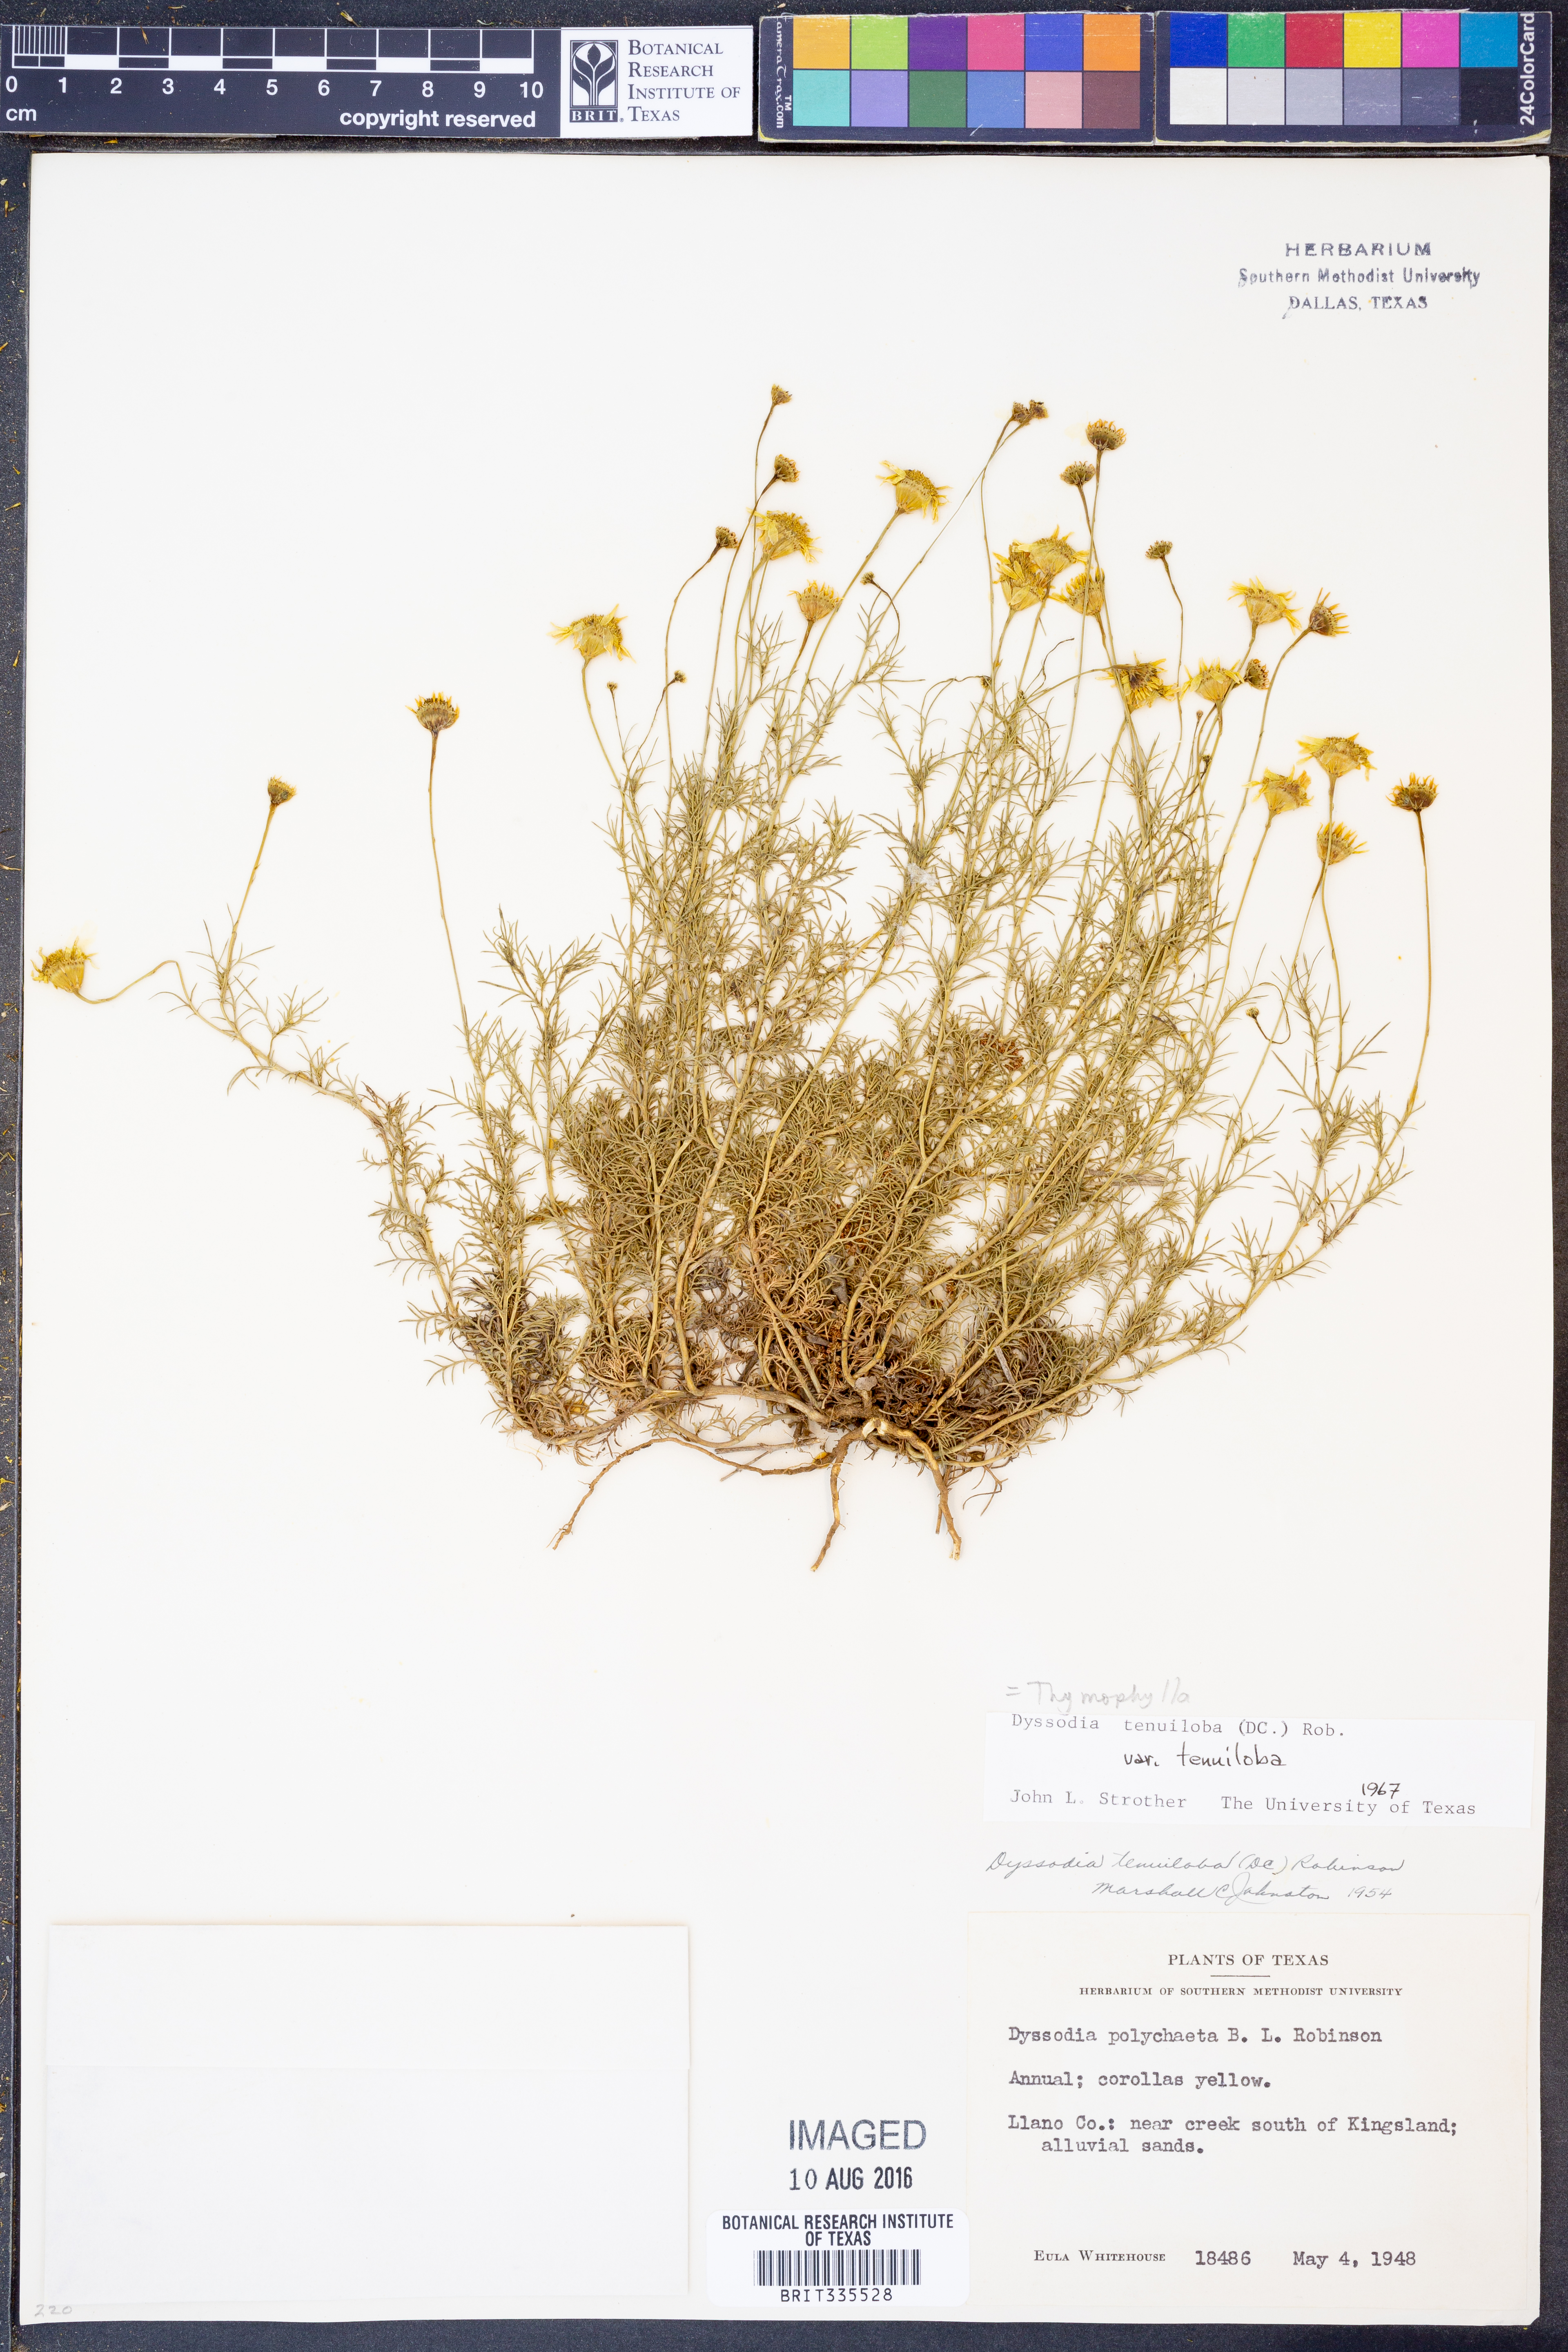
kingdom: Plantae
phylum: Tracheophyta
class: Magnoliopsida
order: Asterales
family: Asteraceae
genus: Thymophylla
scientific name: Thymophylla tenuiloba
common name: Dahlberg's daisy
